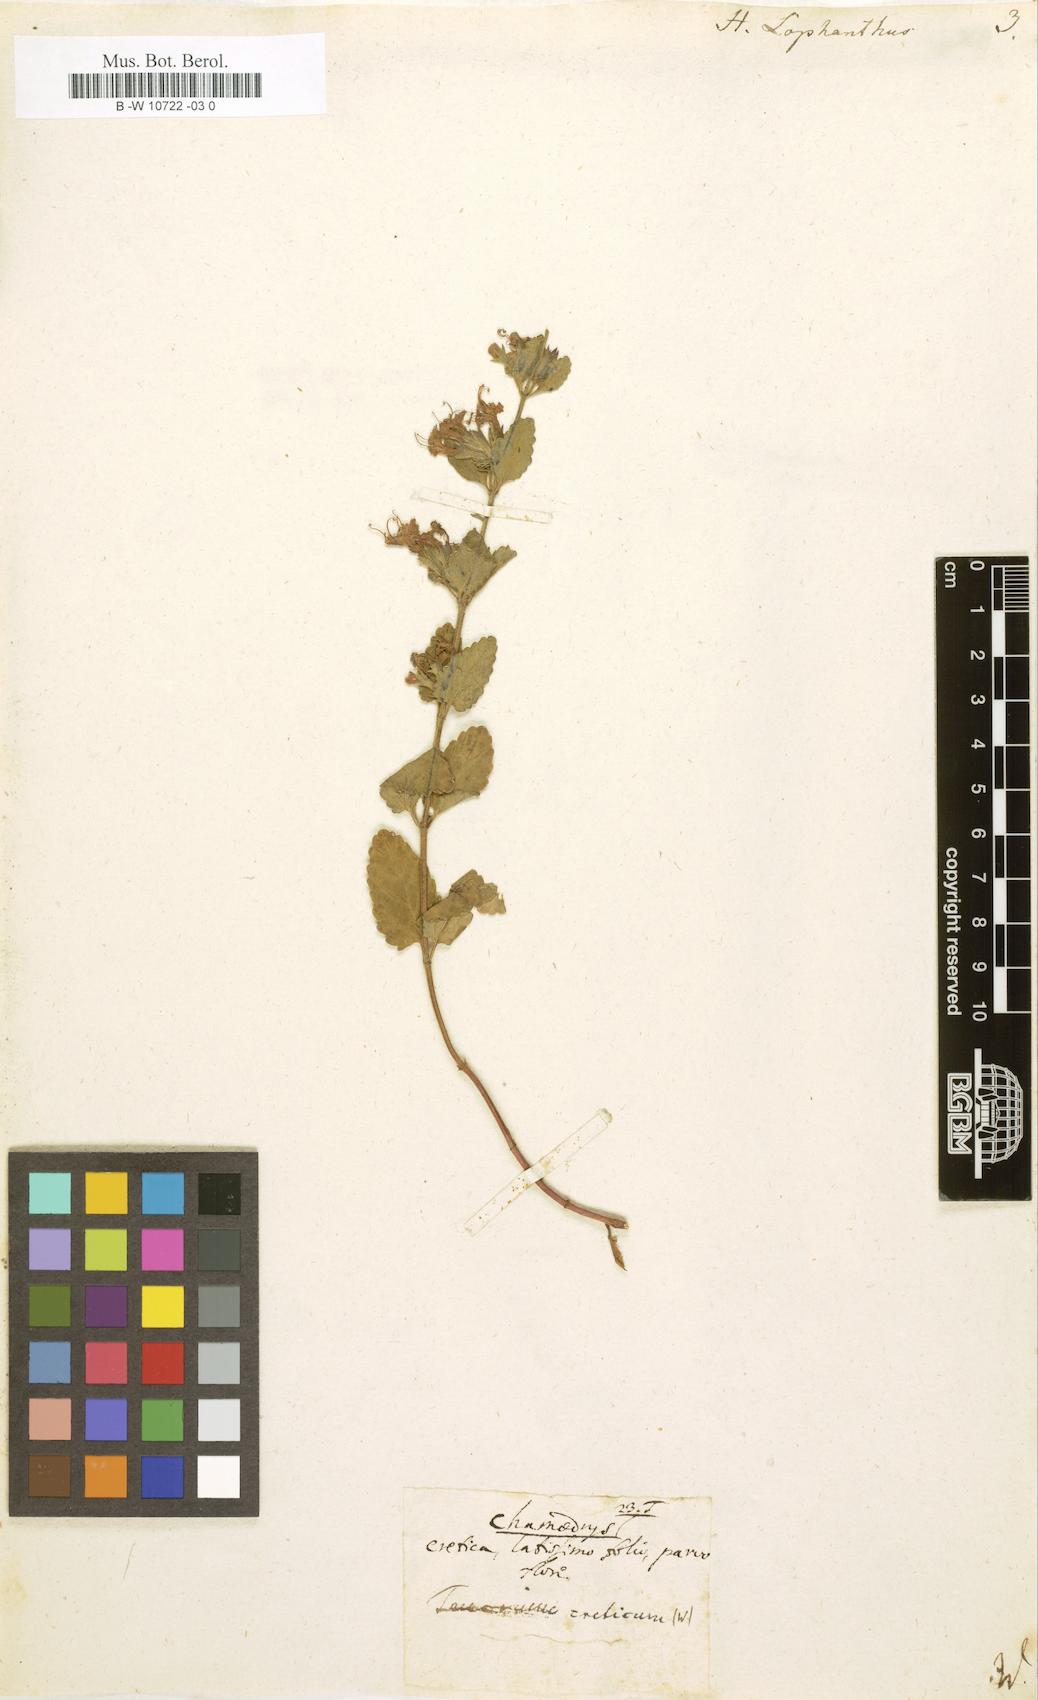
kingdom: Plantae
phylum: Tracheophyta
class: Magnoliopsida
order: Lamiales
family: Lamiaceae
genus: Nepeta
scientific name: Nepeta lophanthus
